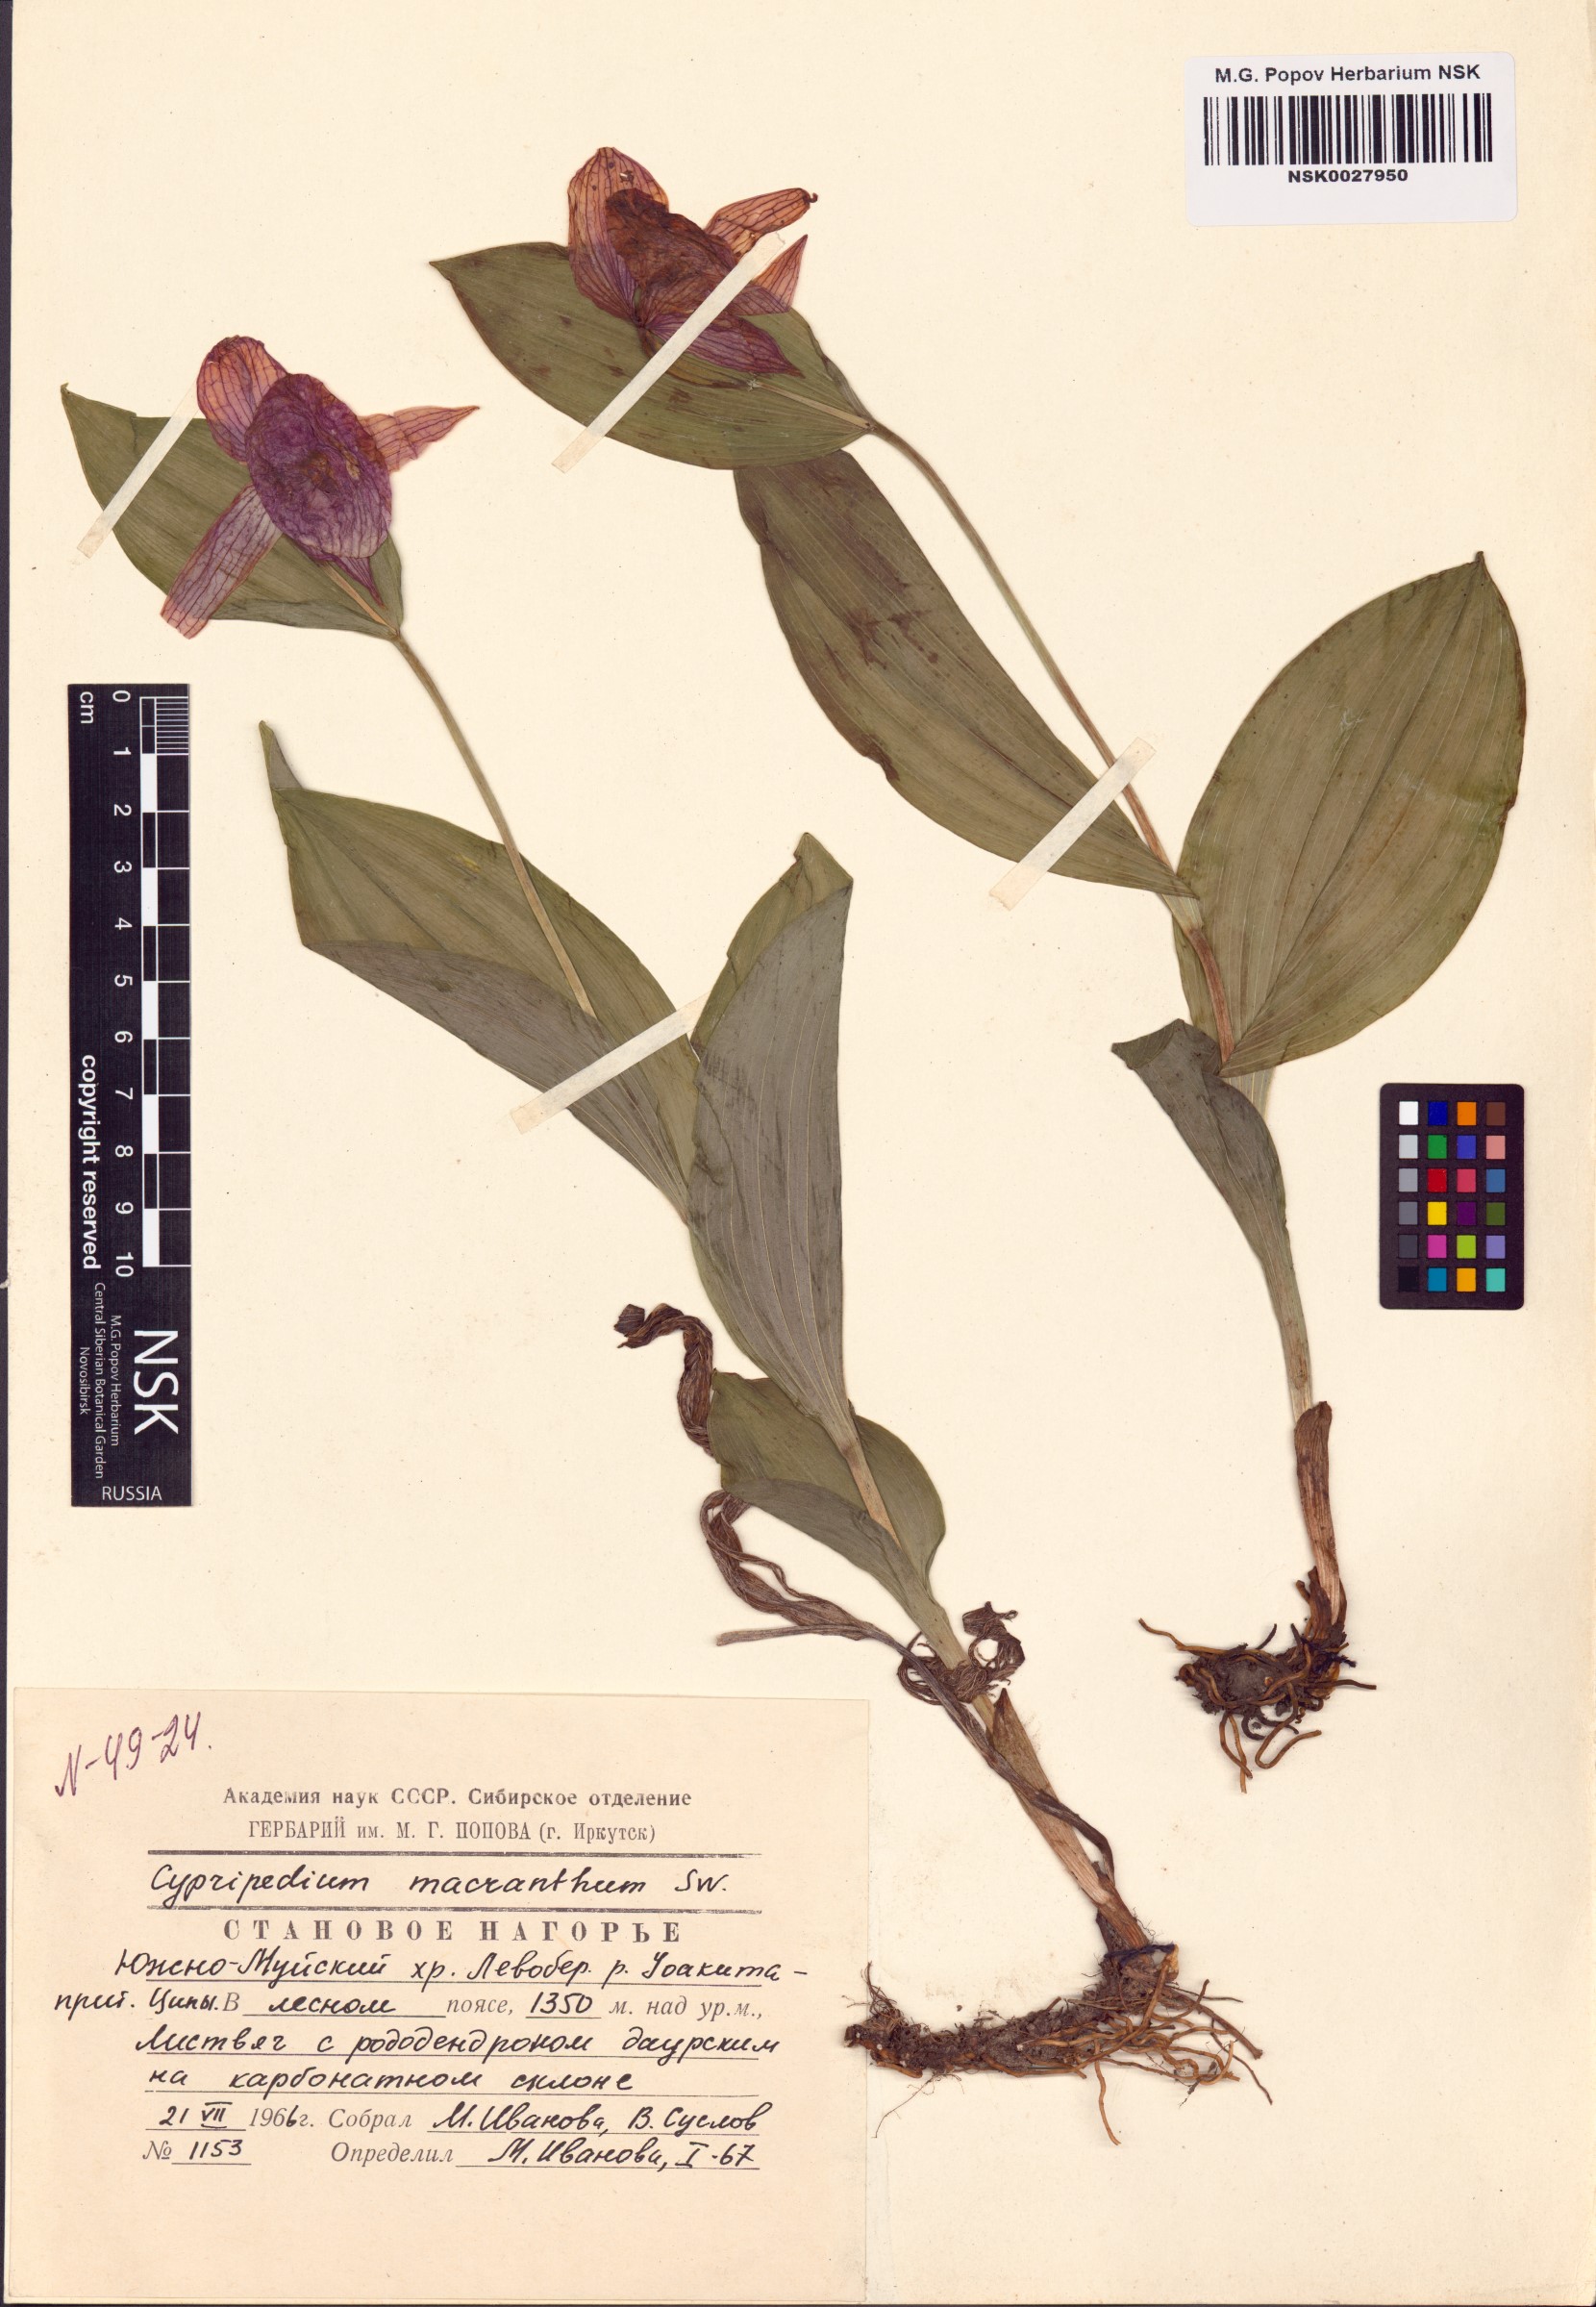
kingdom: Plantae
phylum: Tracheophyta
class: Liliopsida
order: Asparagales
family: Orchidaceae
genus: Cypripedium
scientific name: Cypripedium macranthos
